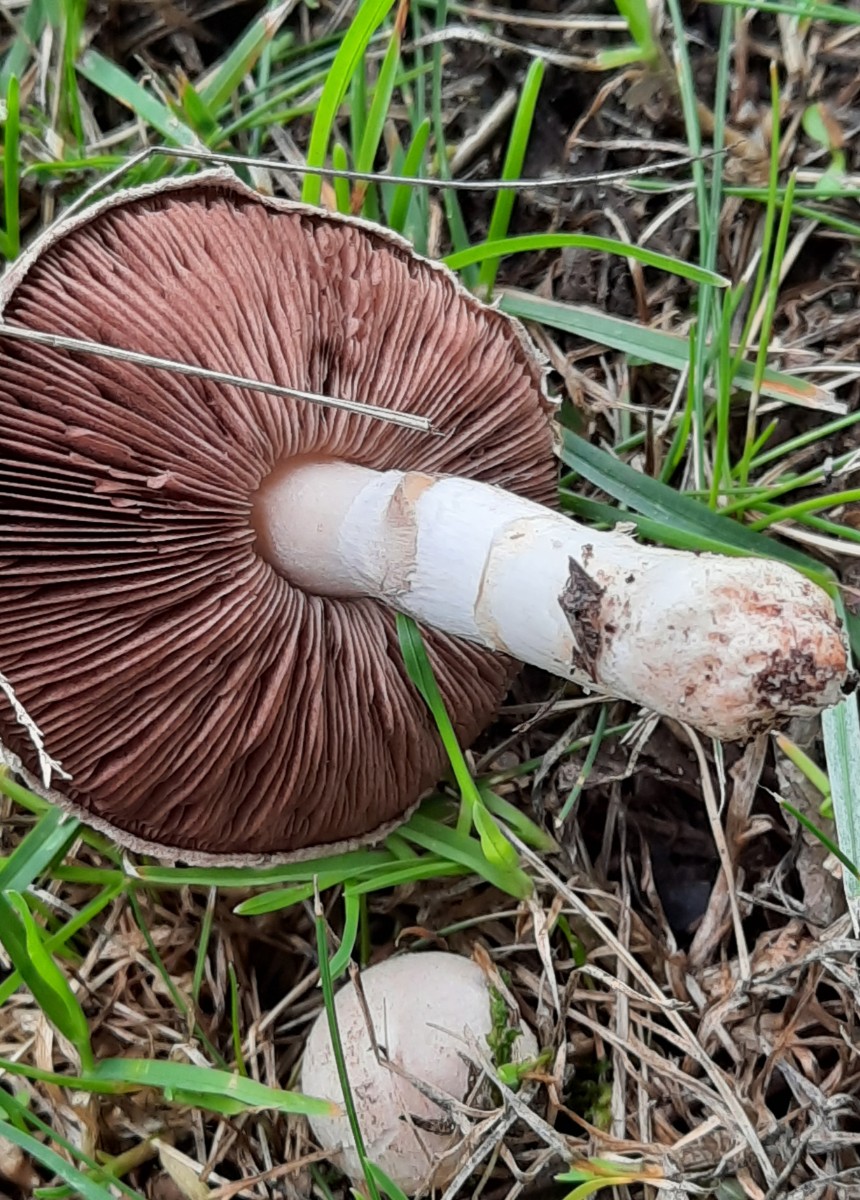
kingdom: Fungi
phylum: Basidiomycota
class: Agaricomycetes
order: Agaricales
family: Agaricaceae
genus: Agaricus
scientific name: Agaricus campestris
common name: mark-champignon
